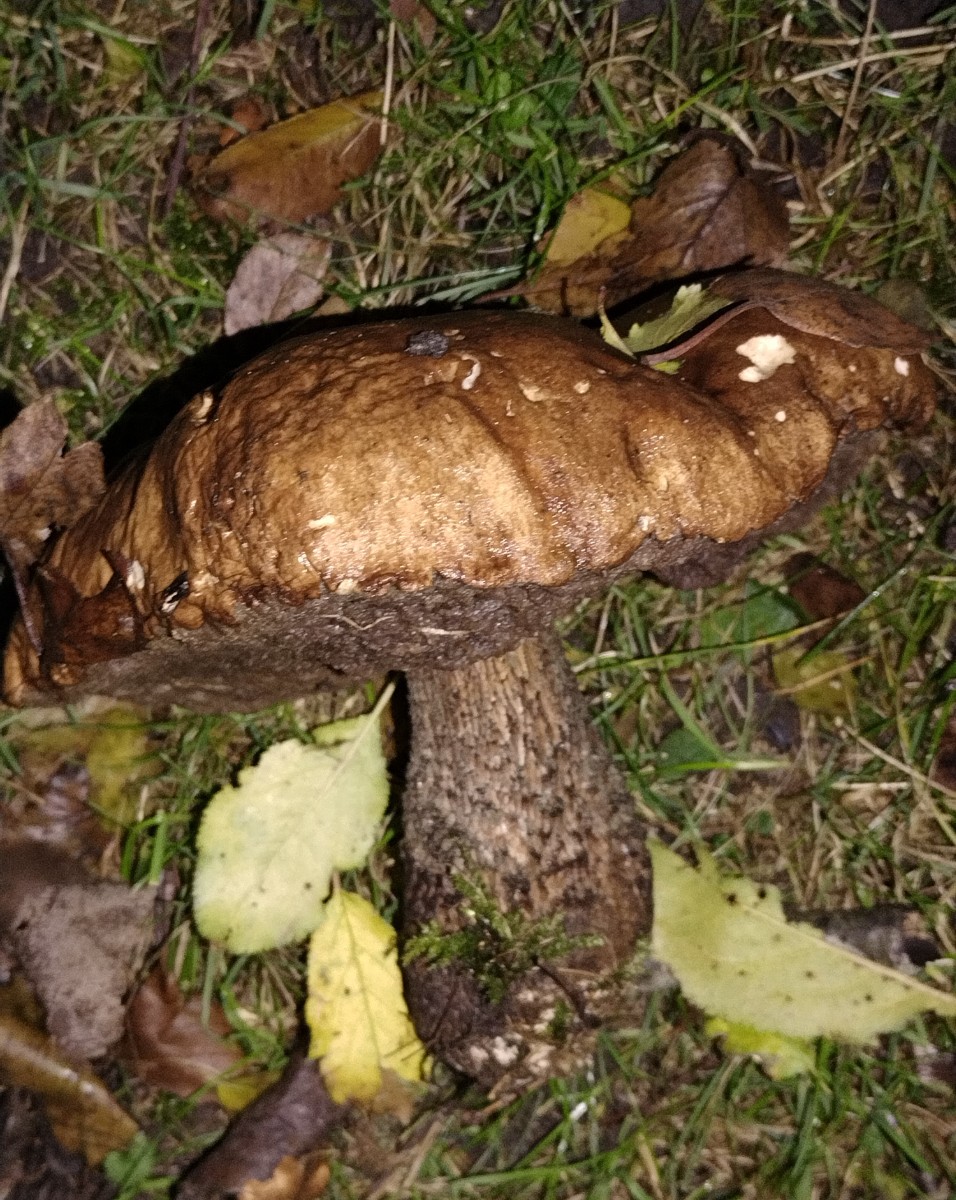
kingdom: Fungi
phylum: Basidiomycota
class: Agaricomycetes
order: Boletales
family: Boletaceae
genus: Leccinum
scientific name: Leccinum scabrum
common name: brun skælrørhat
